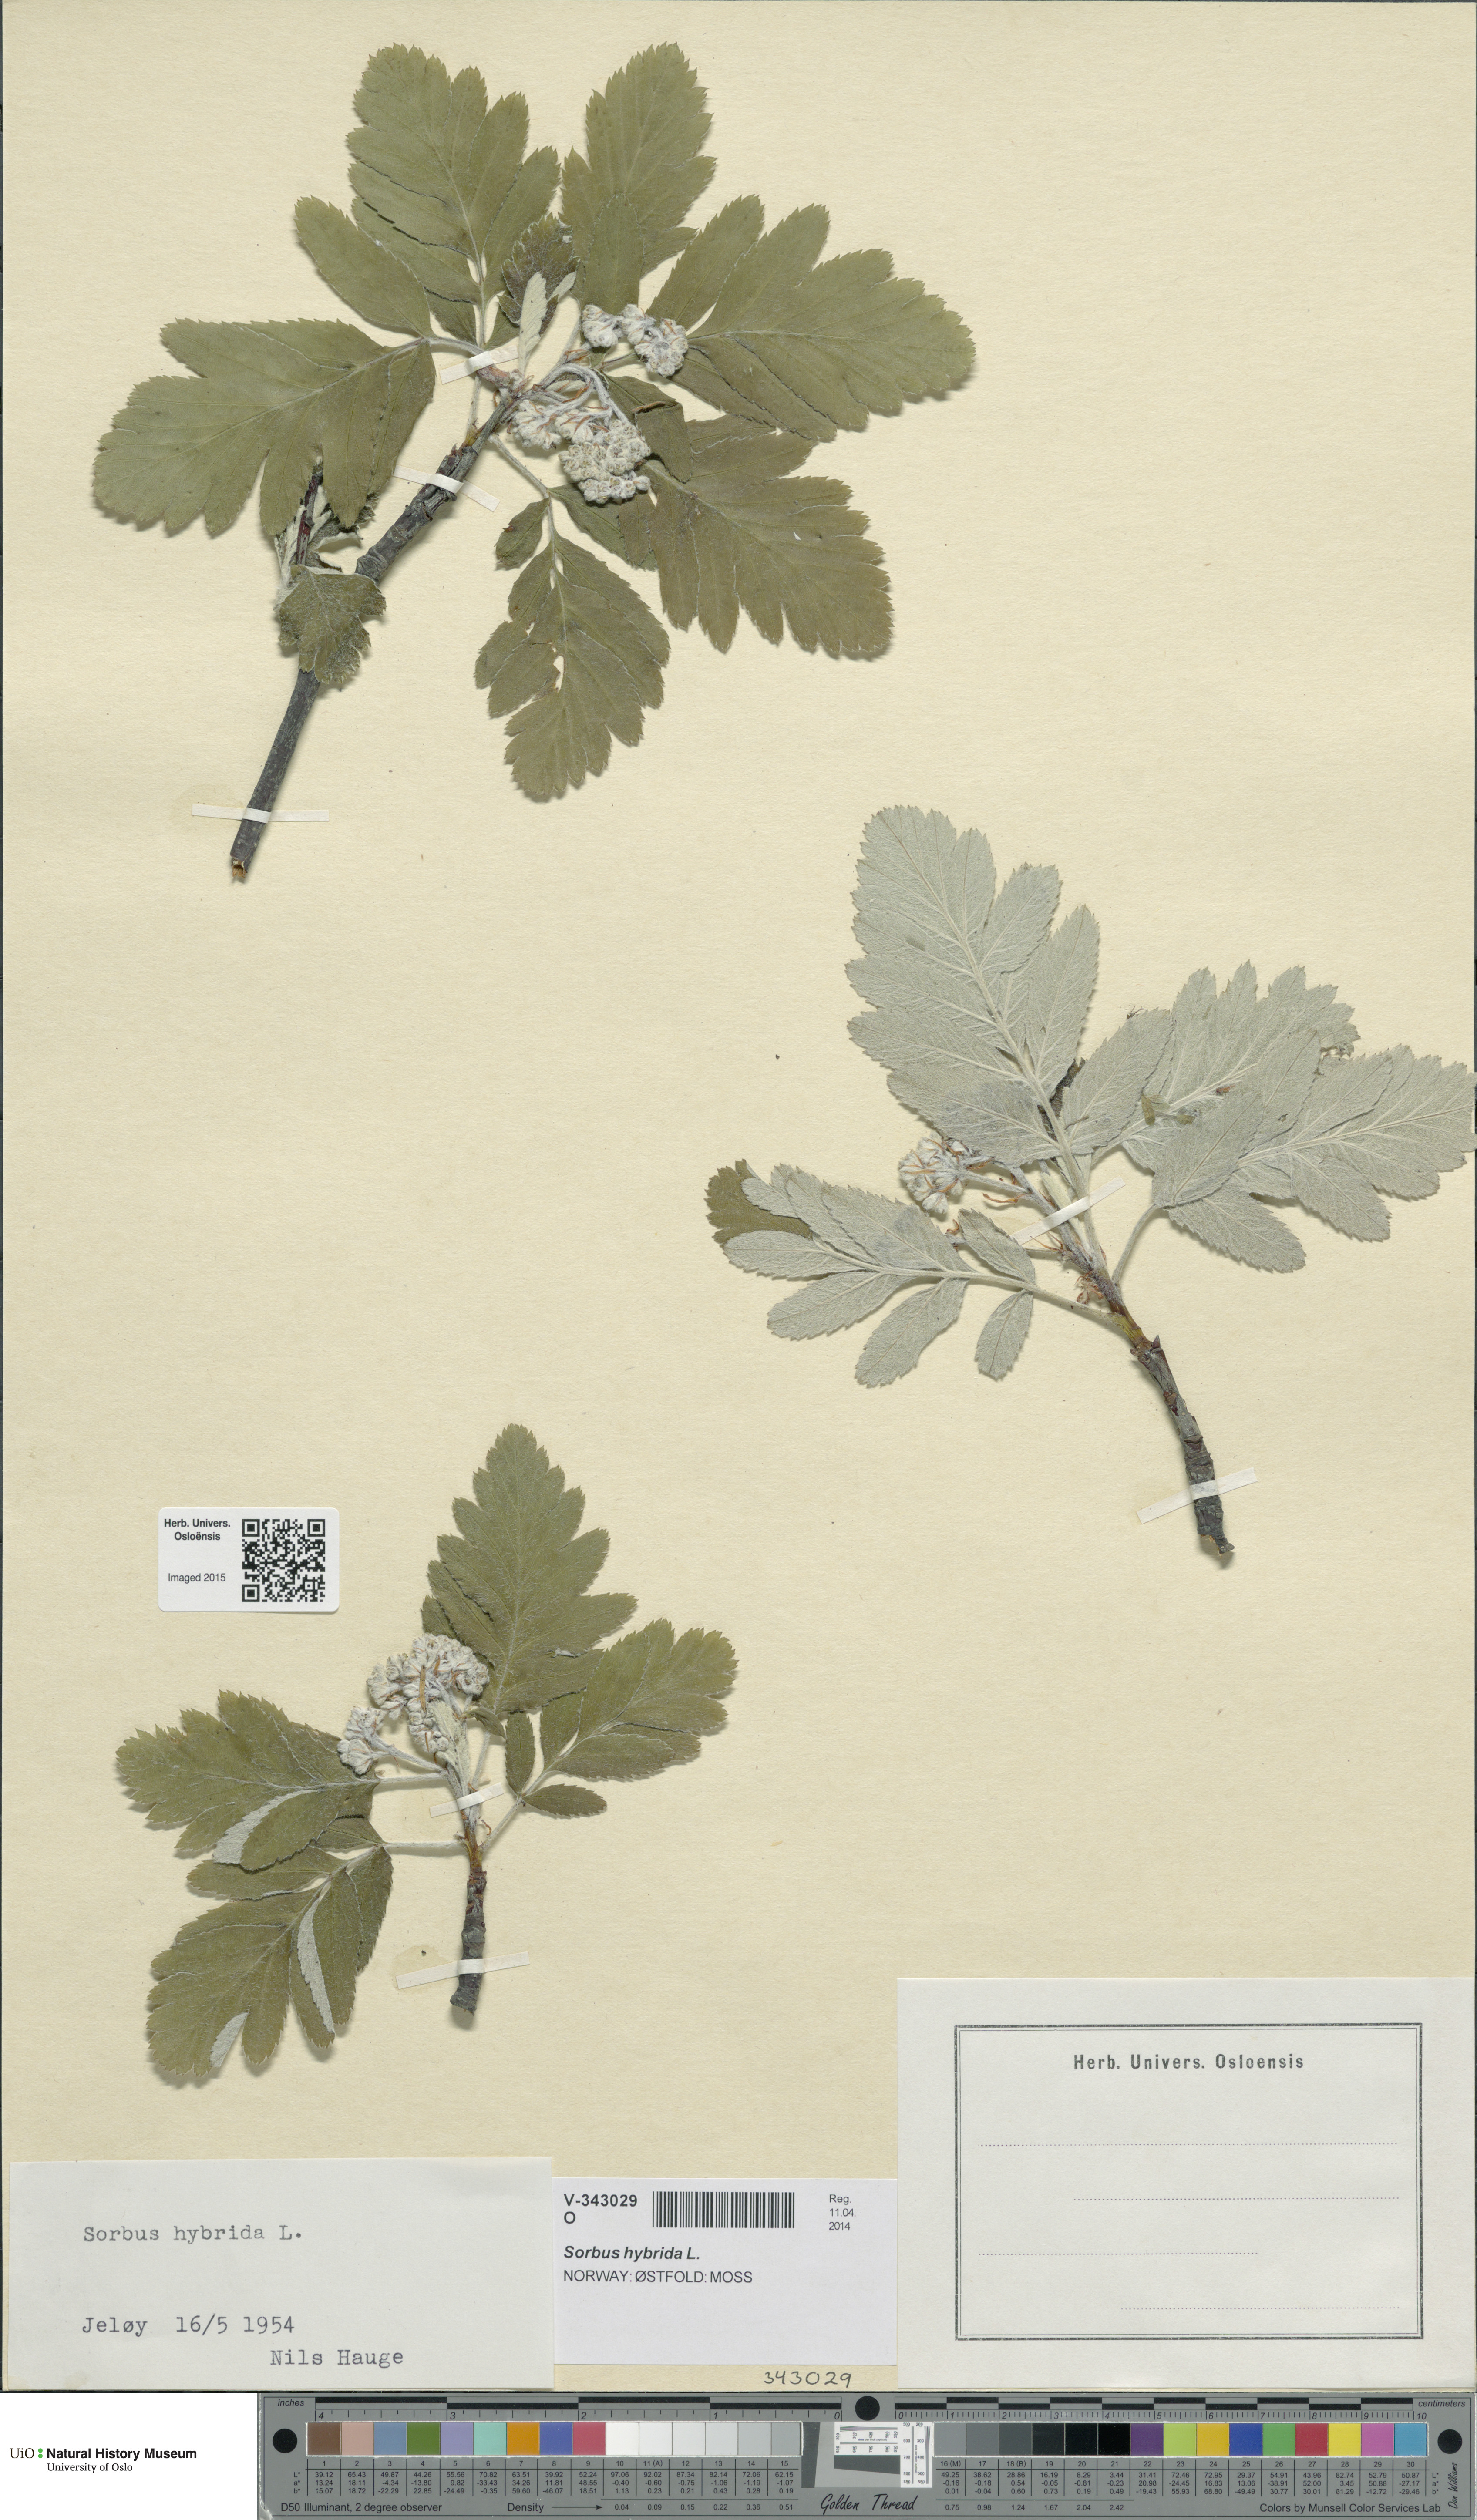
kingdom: Plantae
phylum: Tracheophyta
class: Magnoliopsida
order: Rosales
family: Rosaceae
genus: Hedlundia
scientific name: Hedlundia hybrida
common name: Swedish service-tree
